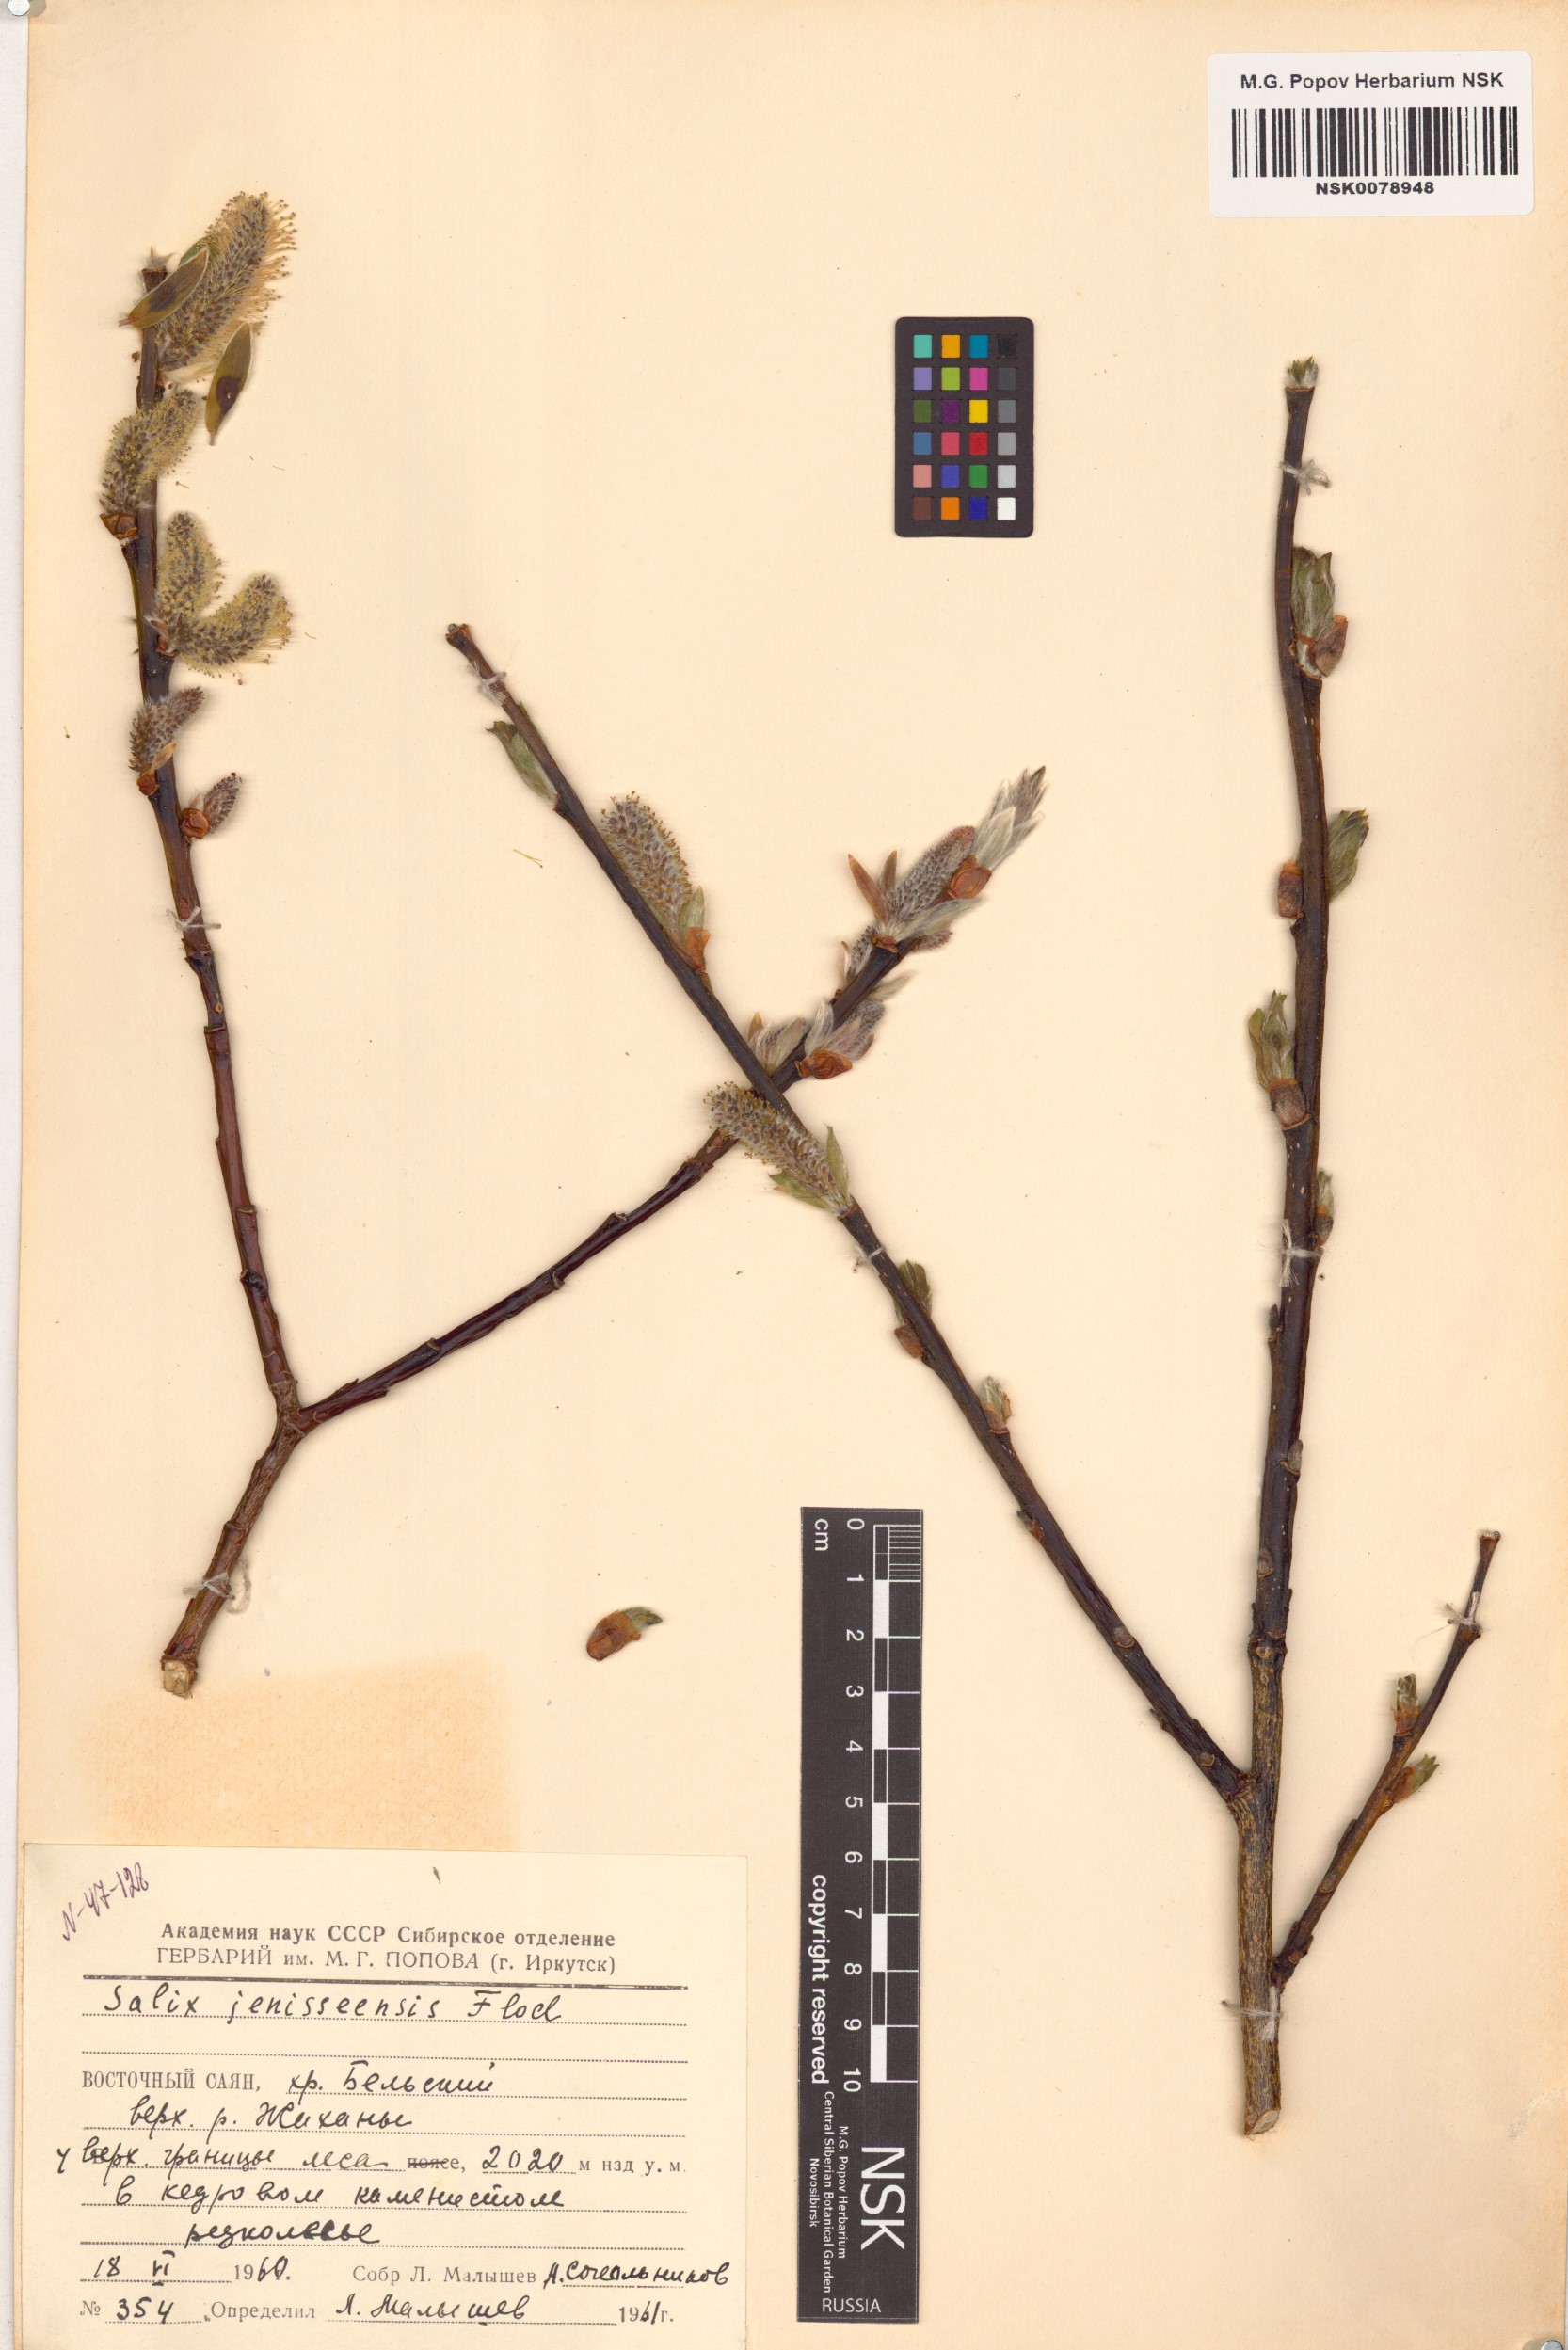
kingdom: Plantae
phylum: Tracheophyta
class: Magnoliopsida
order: Malpighiales
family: Salicaceae
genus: Salix
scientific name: Salix jenisseensis
